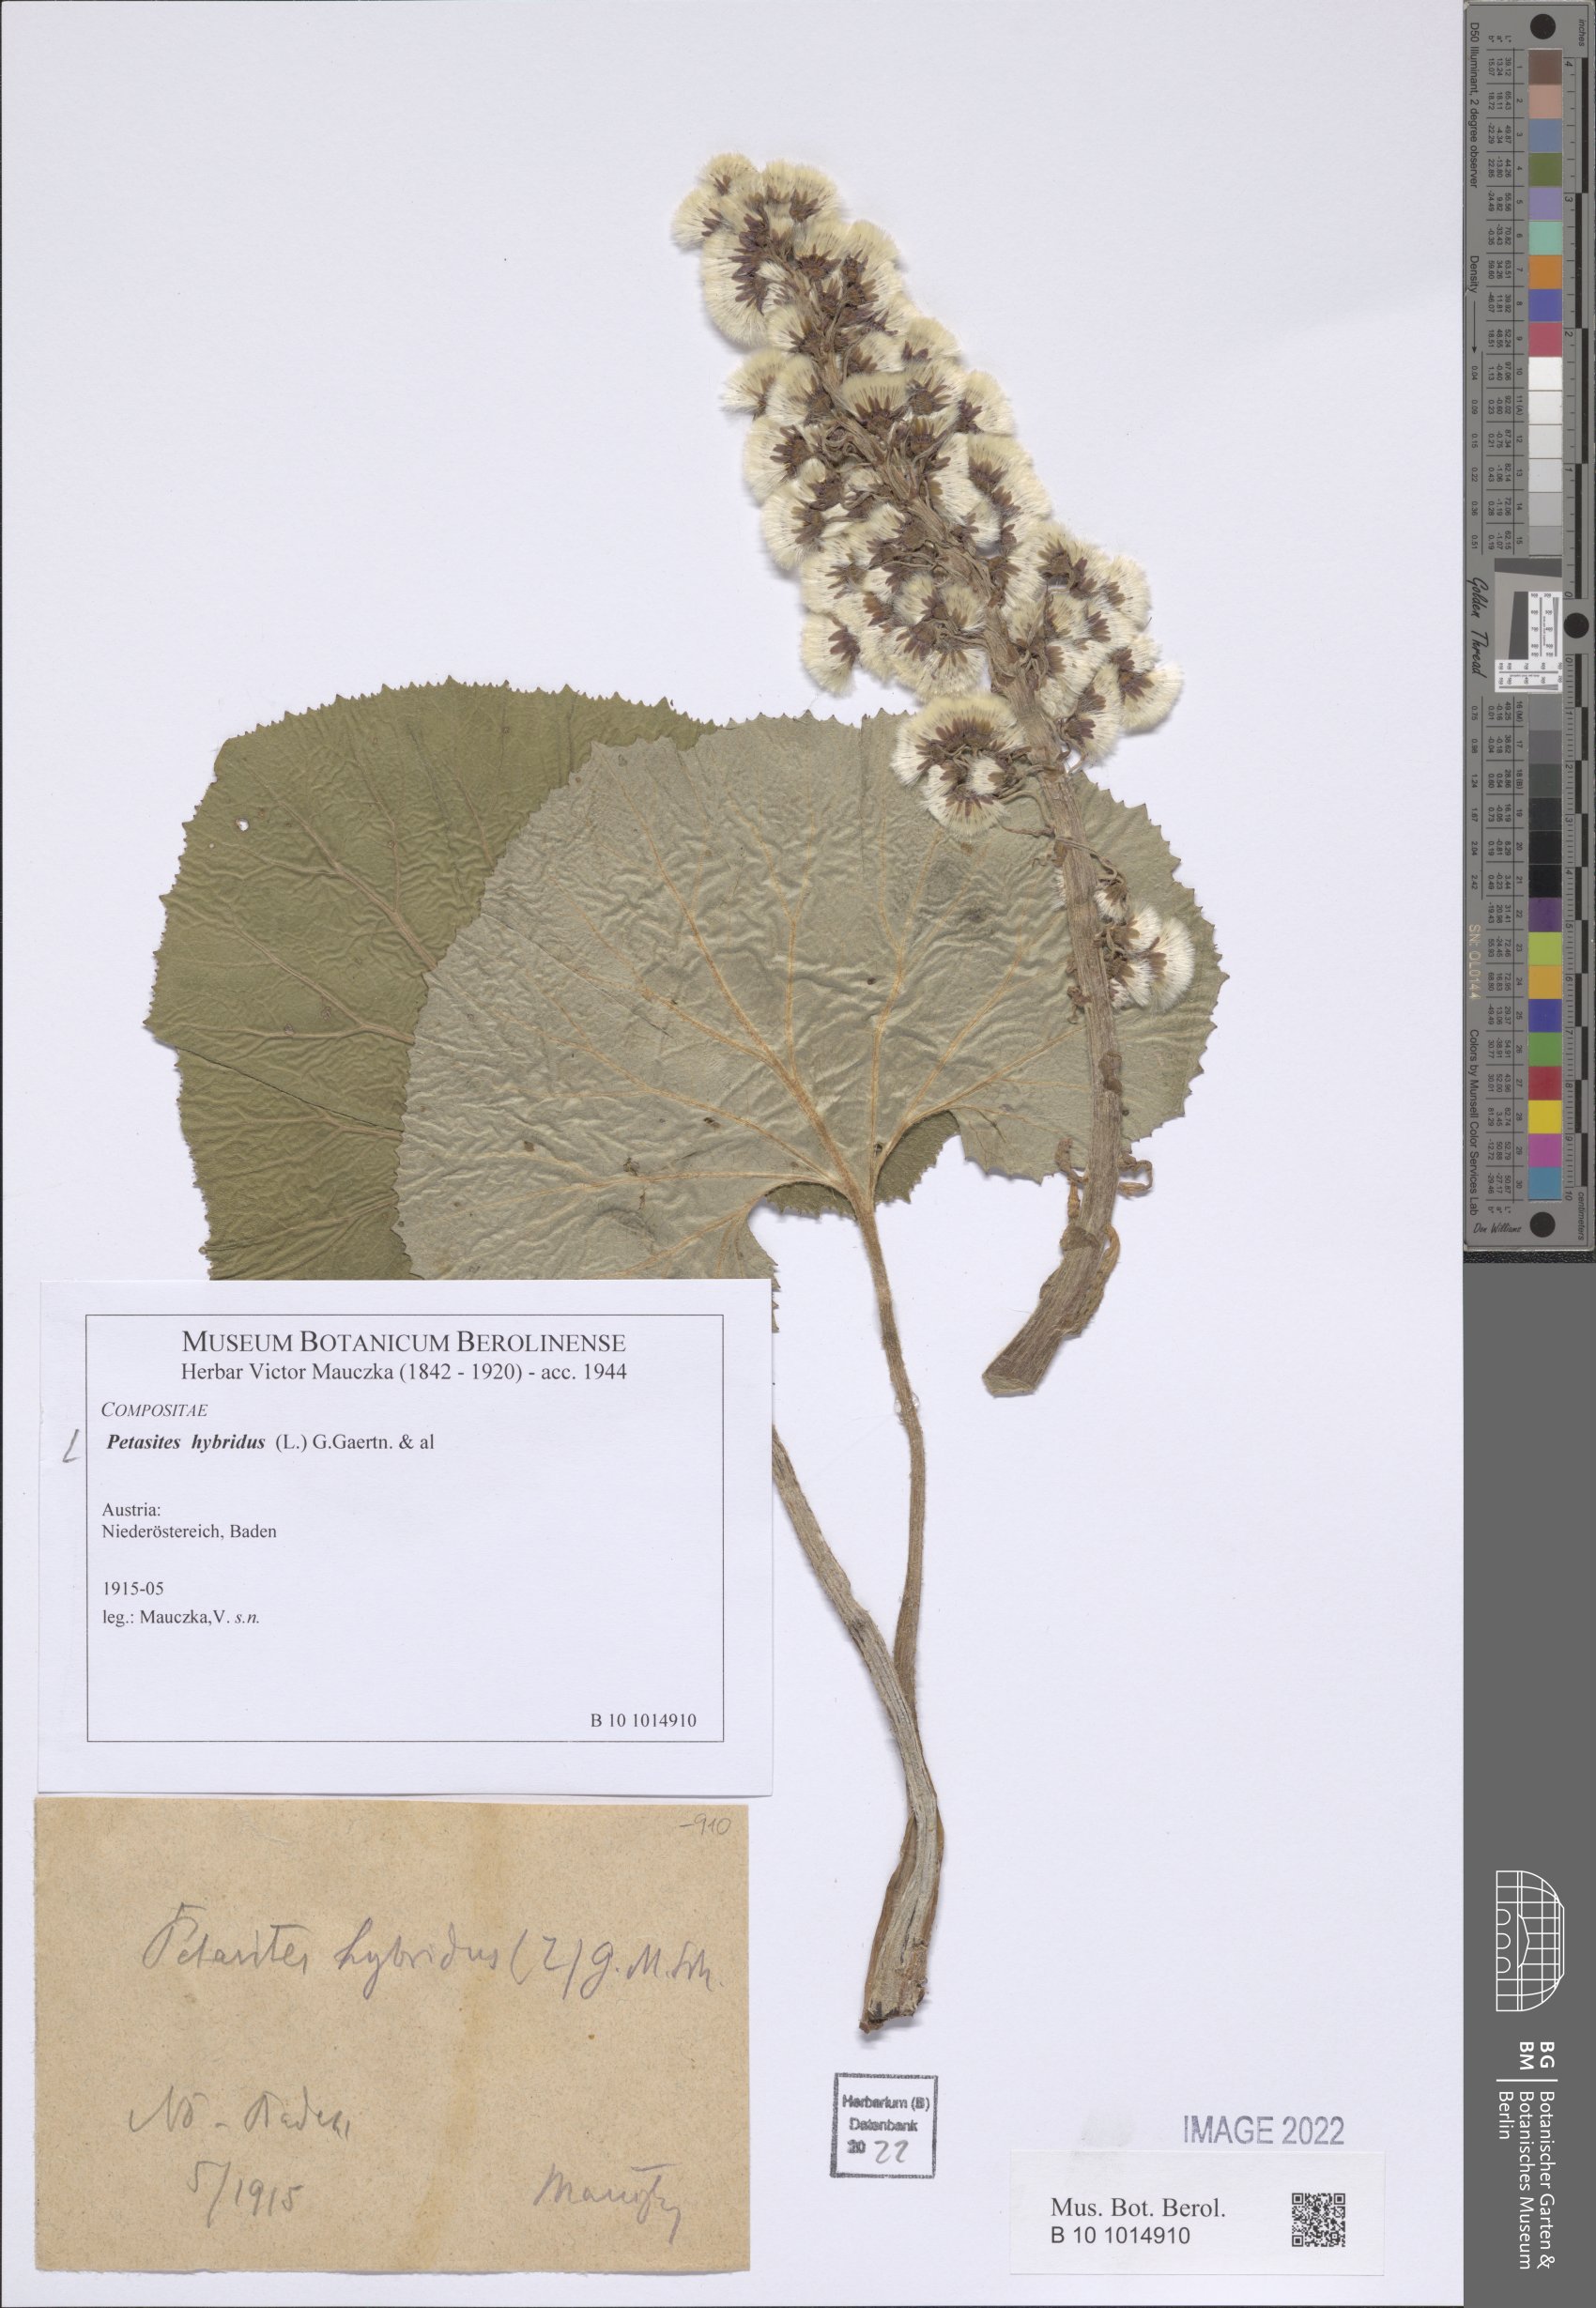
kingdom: Plantae
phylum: Tracheophyta
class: Magnoliopsida
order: Asterales
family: Asteraceae
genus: Petasites
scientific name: Petasites hybridus
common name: Butterbur
